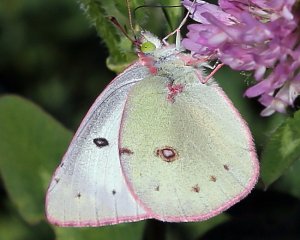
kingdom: Animalia
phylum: Arthropoda
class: Insecta
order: Lepidoptera
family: Pieridae
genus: Colias
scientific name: Colias philodice
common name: Clouded Sulphur
